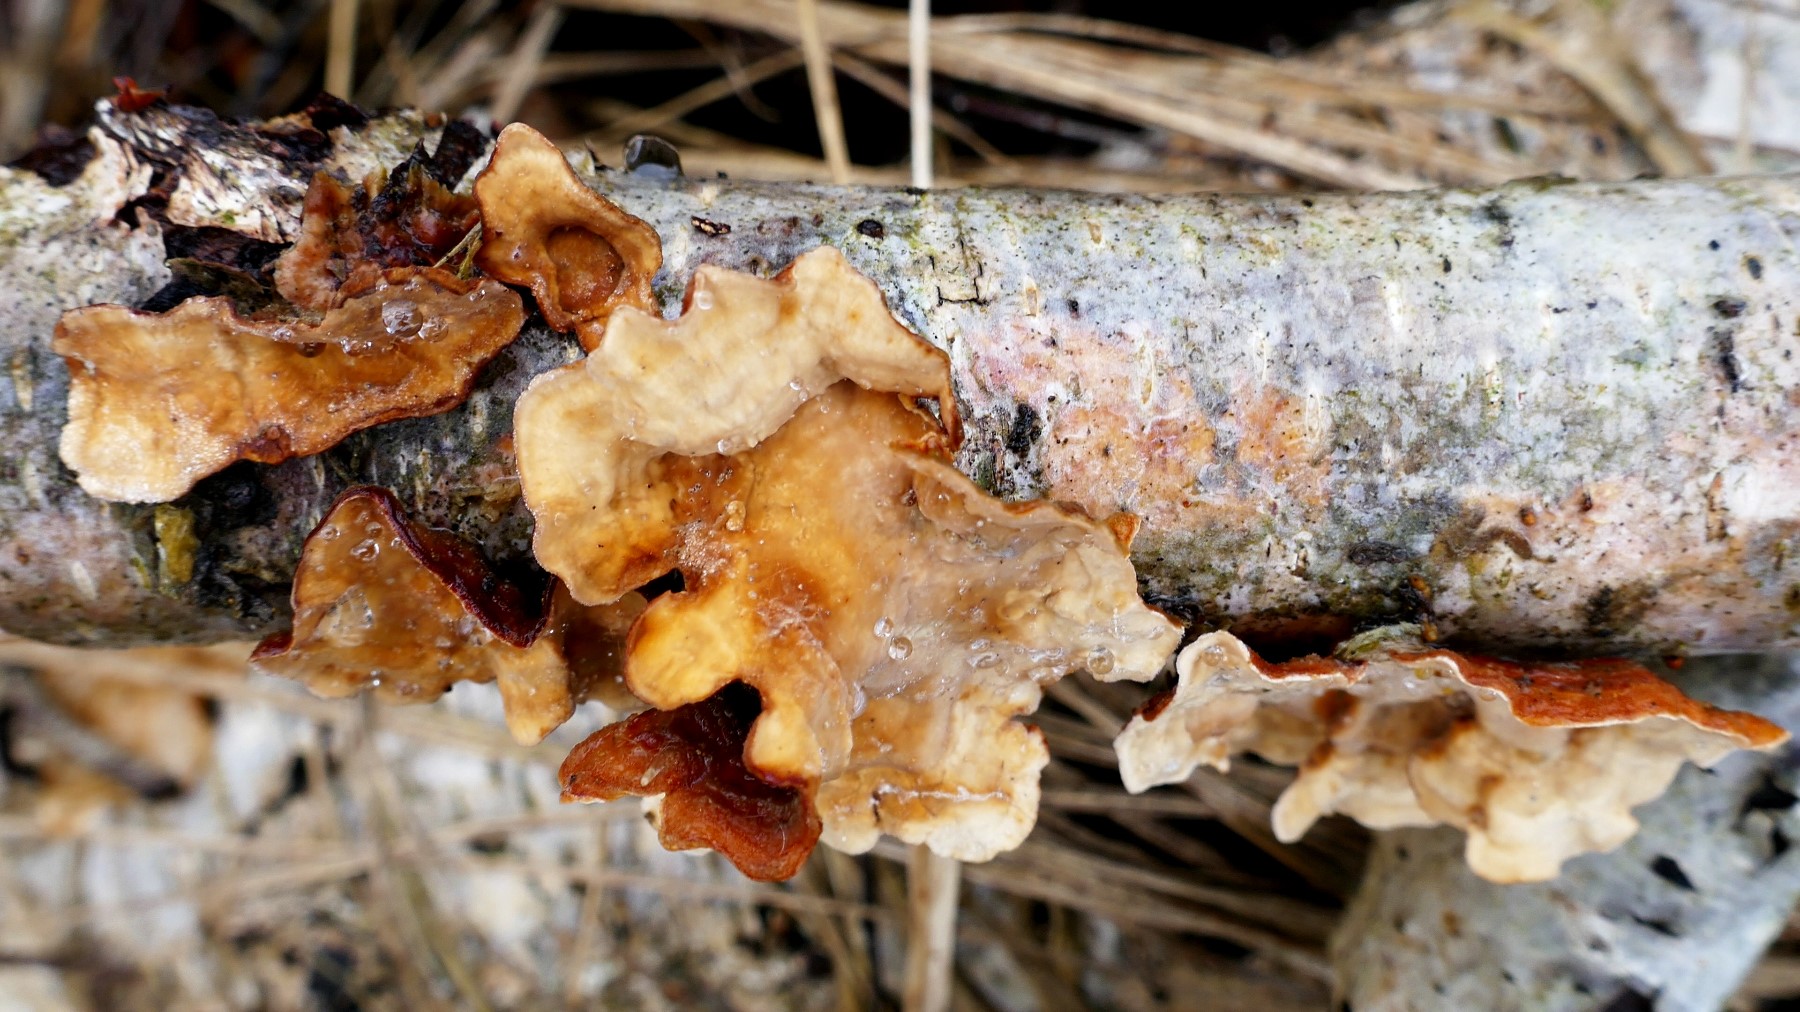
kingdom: Fungi
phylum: Basidiomycota
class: Agaricomycetes
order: Russulales
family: Stereaceae
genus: Stereum
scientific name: Stereum subtomentosum
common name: smuk lædersvamp
